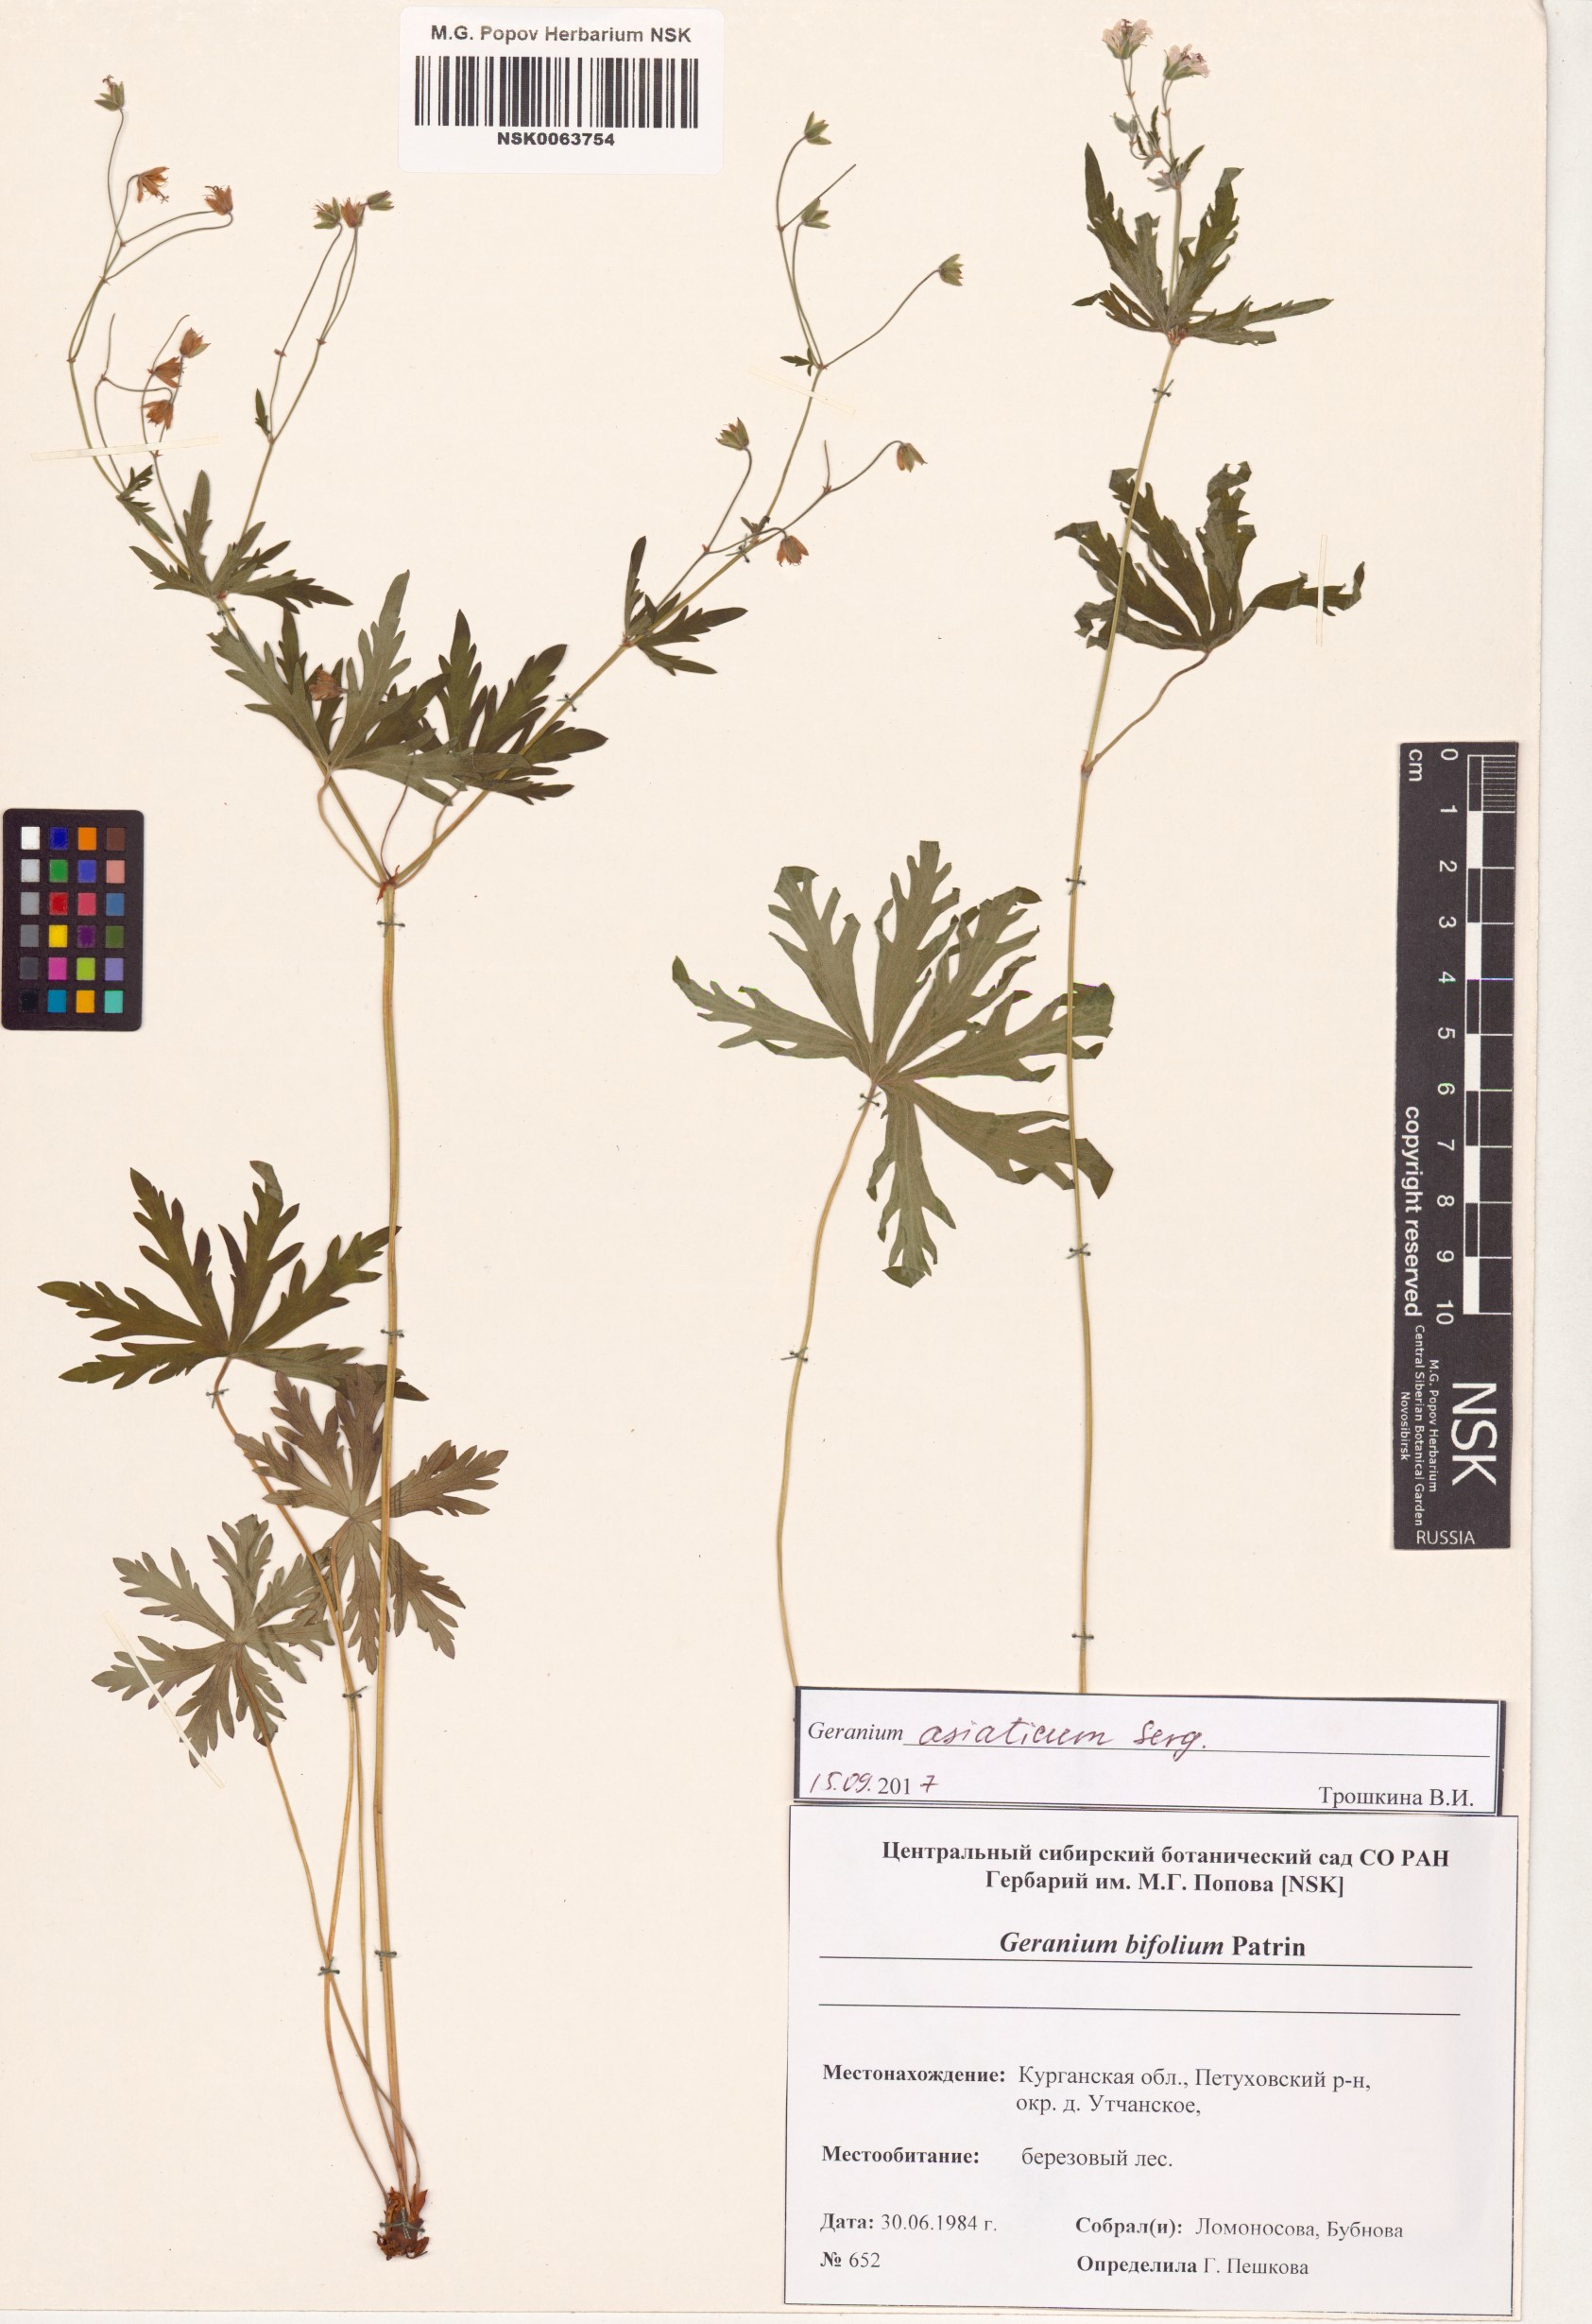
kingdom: Plantae
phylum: Tracheophyta
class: Magnoliopsida
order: Geraniales
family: Geraniaceae
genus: Geranium
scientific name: Geranium pseudosibiricum
